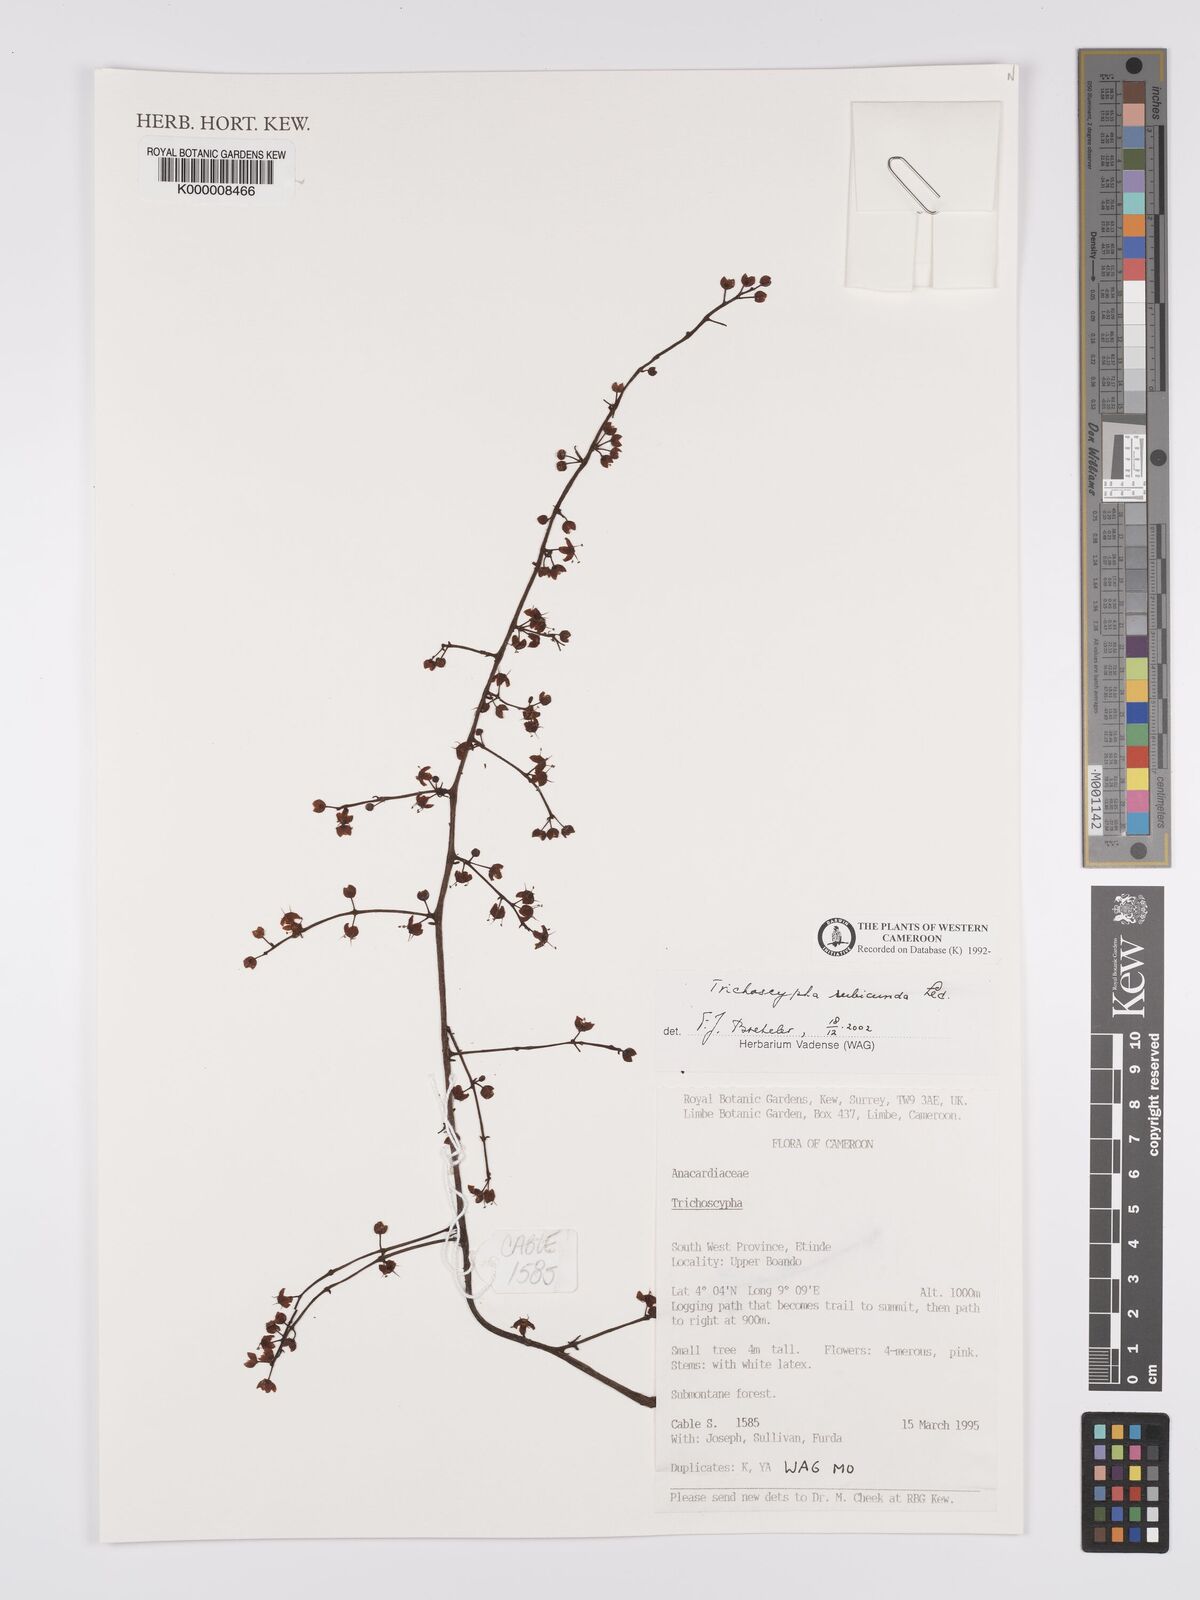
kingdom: Plantae
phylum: Tracheophyta
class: Magnoliopsida
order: Sapindales
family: Anacardiaceae
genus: Trichoscypha
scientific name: Trichoscypha rubicunda
